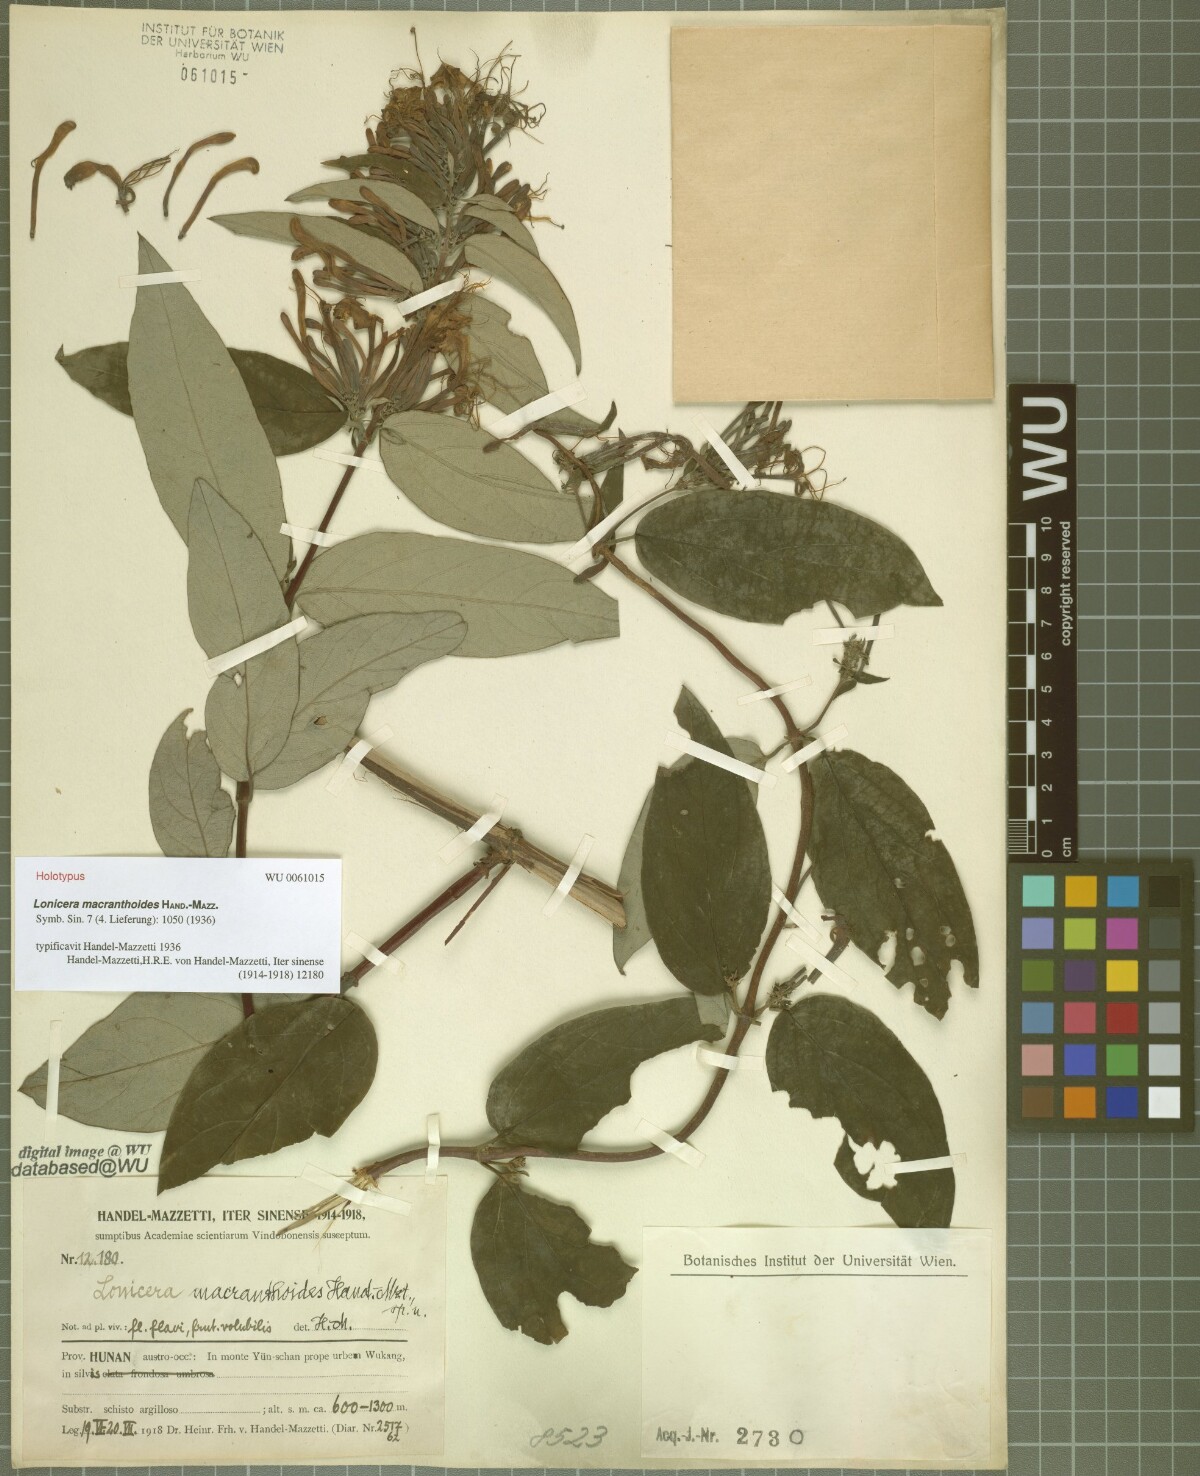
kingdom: Plantae
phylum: Tracheophyta
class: Magnoliopsida
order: Dipsacales
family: Caprifoliaceae
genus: Lonicera
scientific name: Lonicera guillonii
